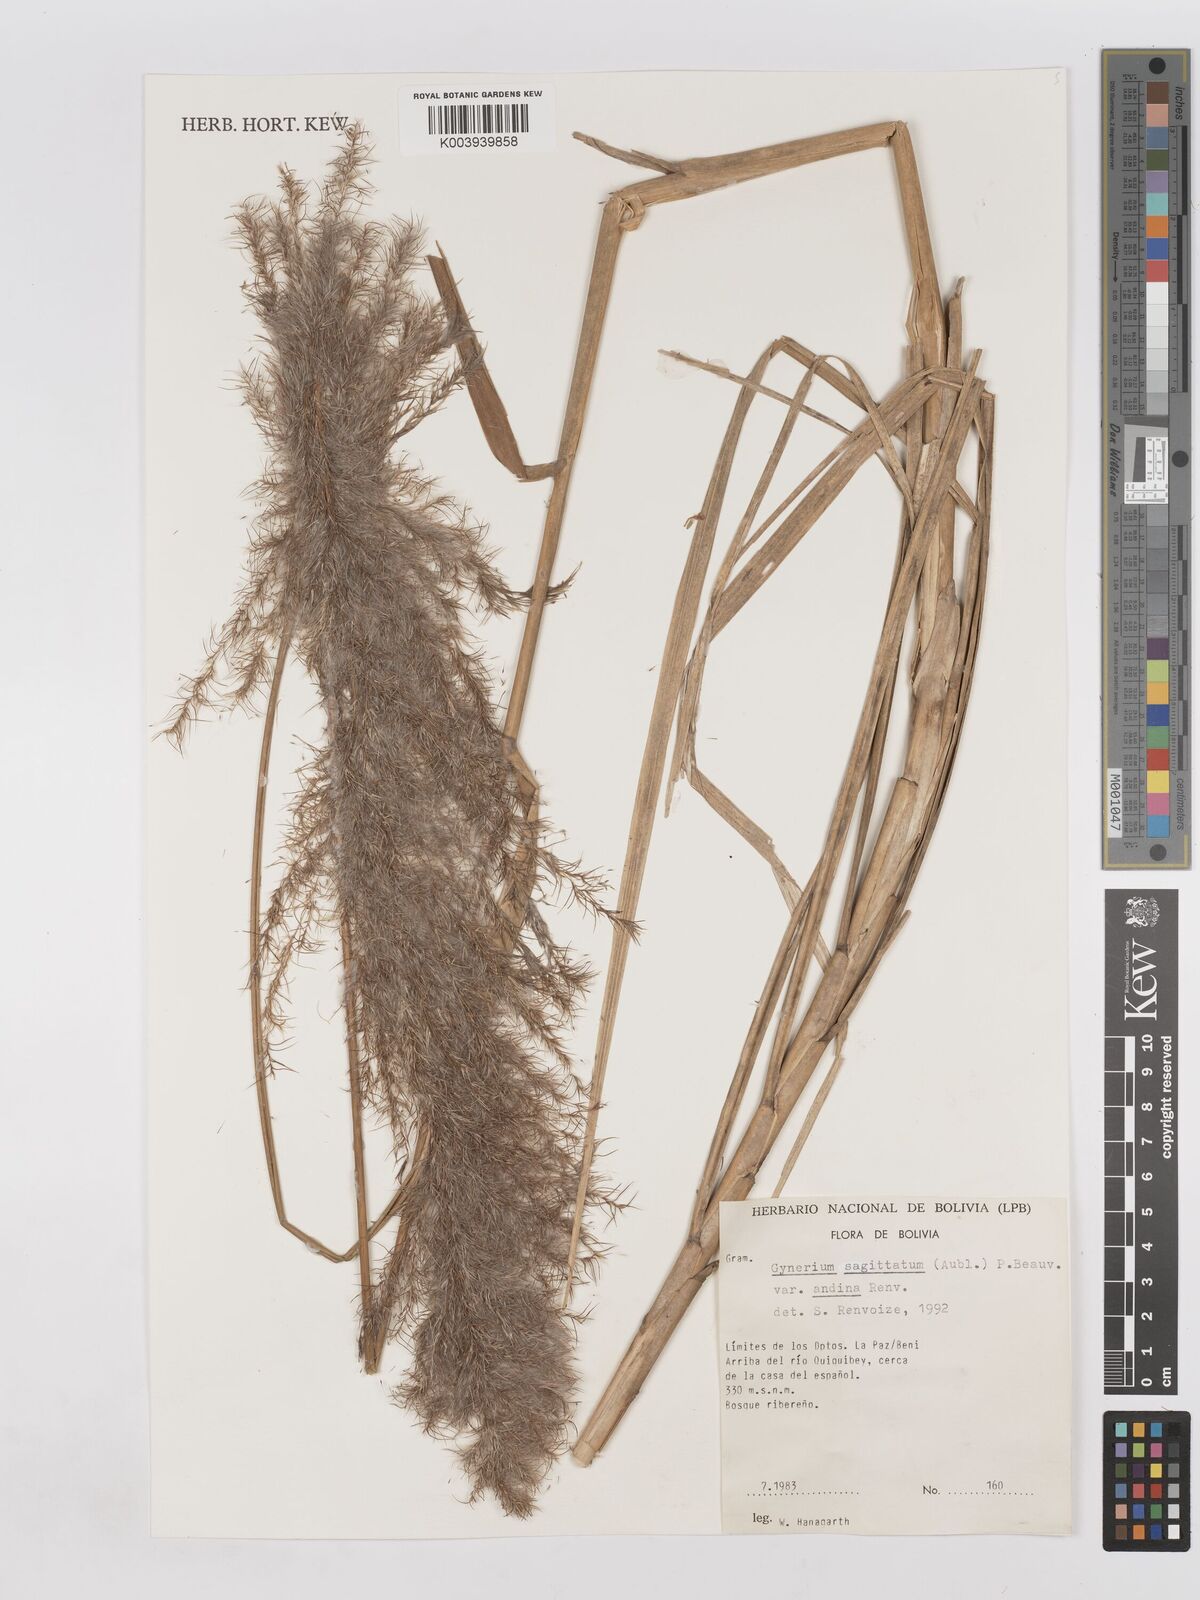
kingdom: Plantae
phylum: Tracheophyta
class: Liliopsida
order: Poales
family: Poaceae
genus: Gynerium
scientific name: Gynerium sagittatum
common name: Wild cane
